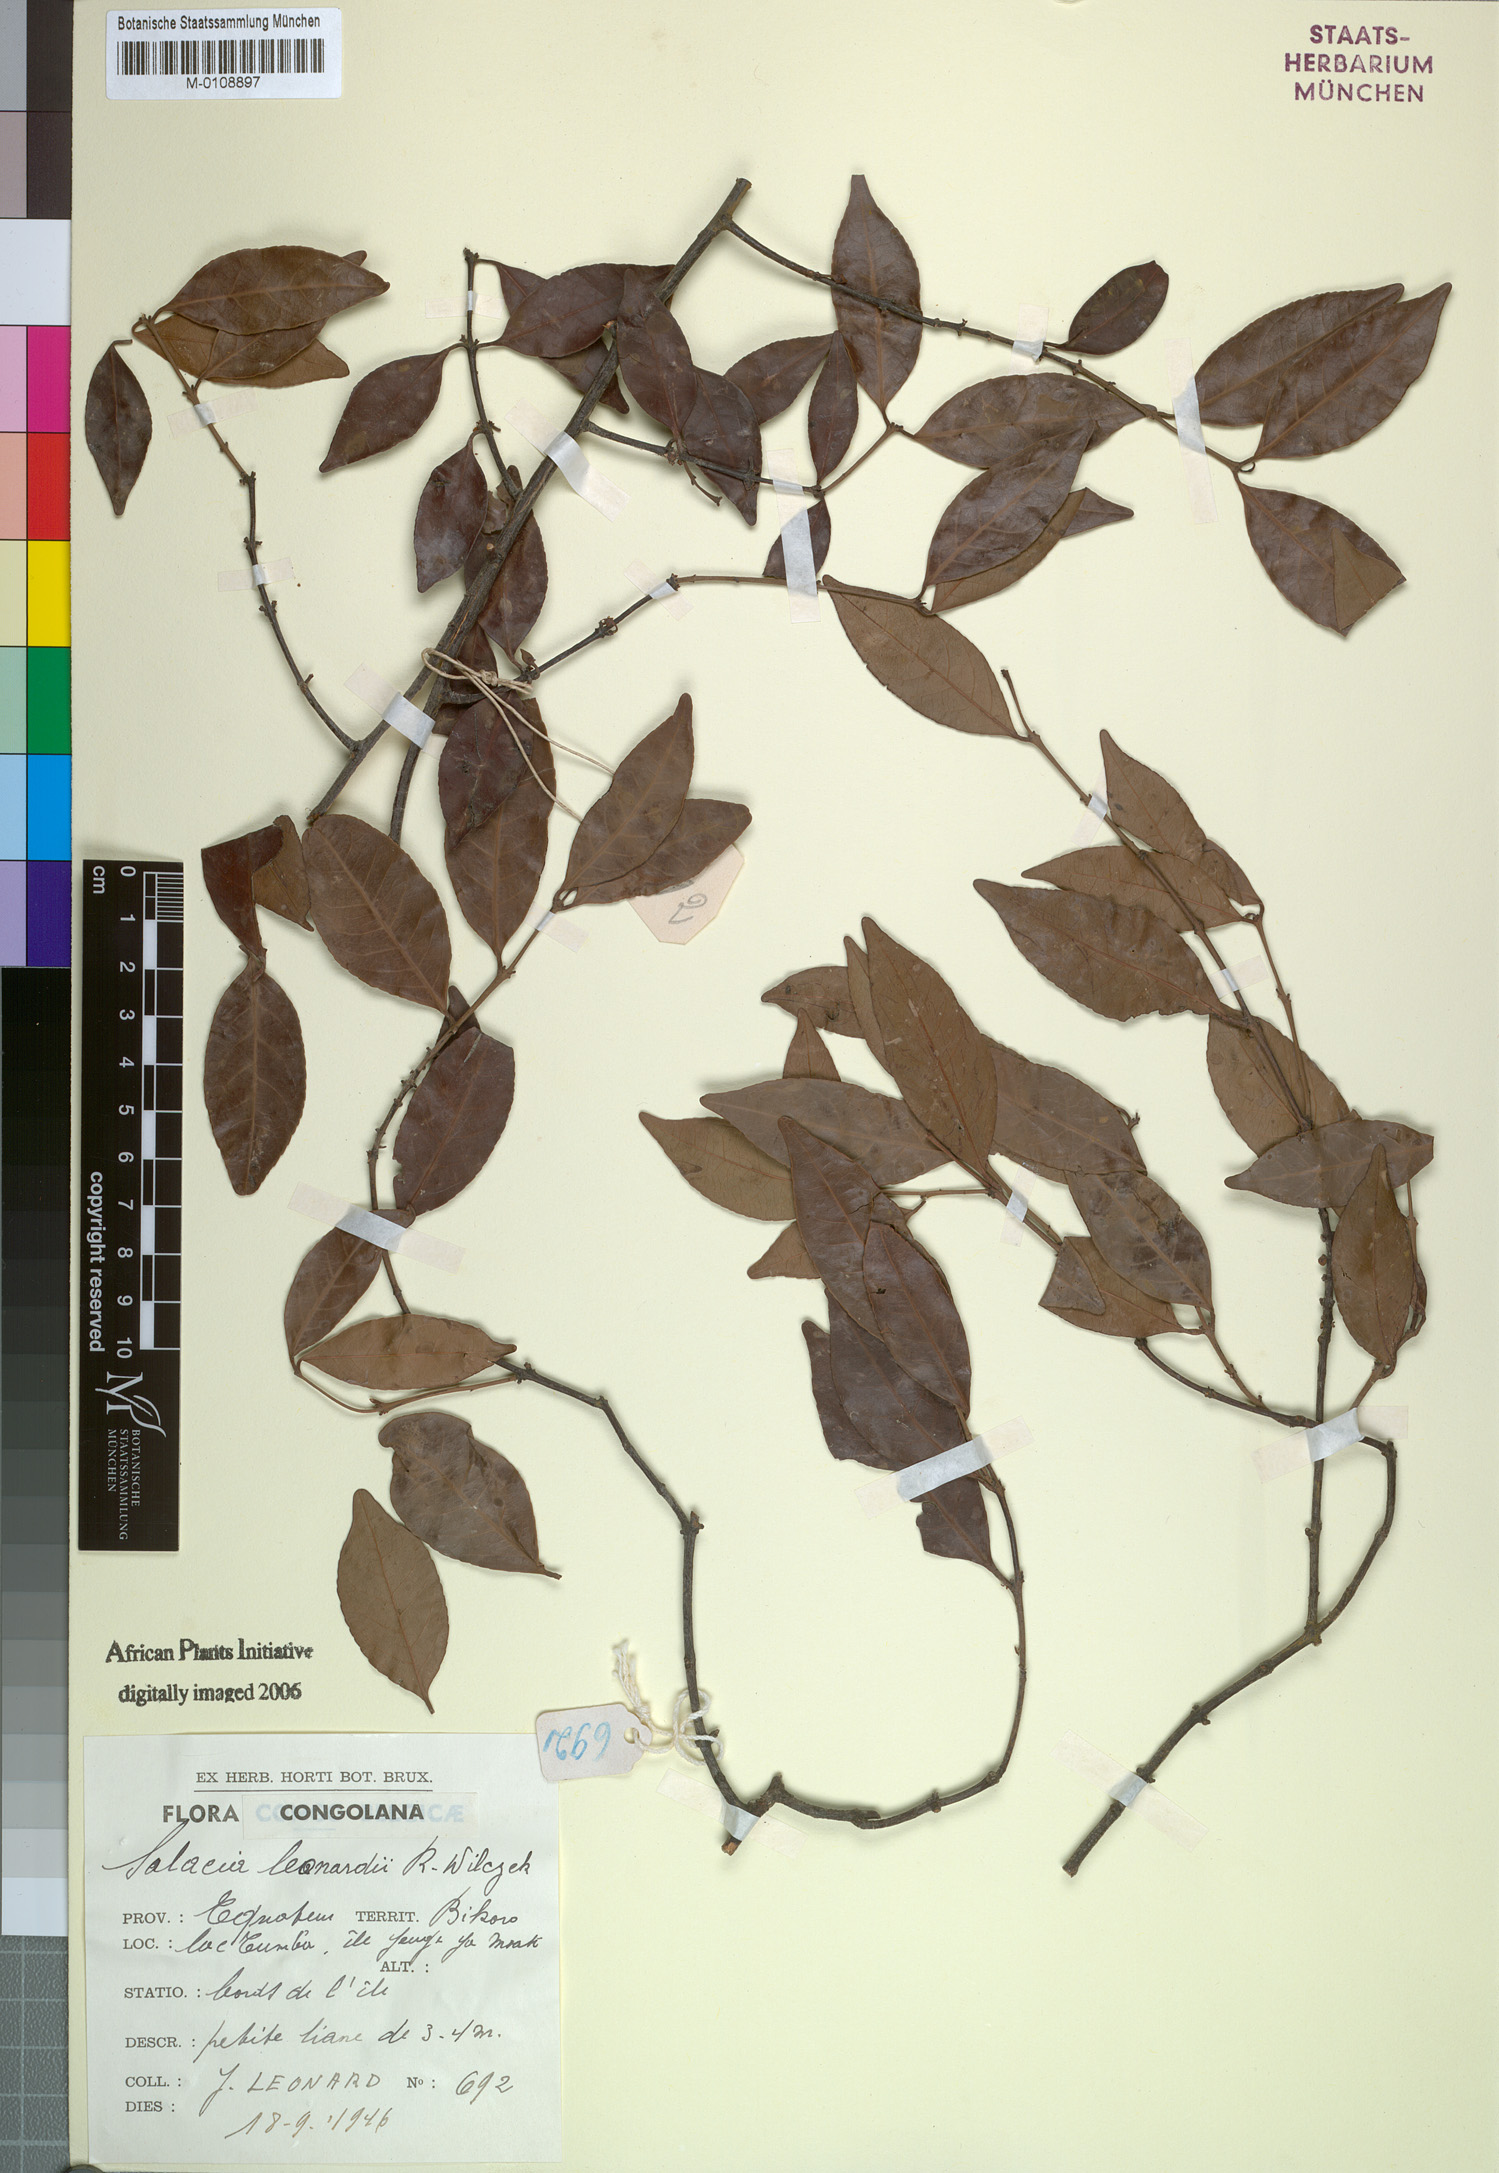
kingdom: Plantae
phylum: Tracheophyta
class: Magnoliopsida
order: Celastrales
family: Celastraceae
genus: Salacia
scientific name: Salacia erecta
